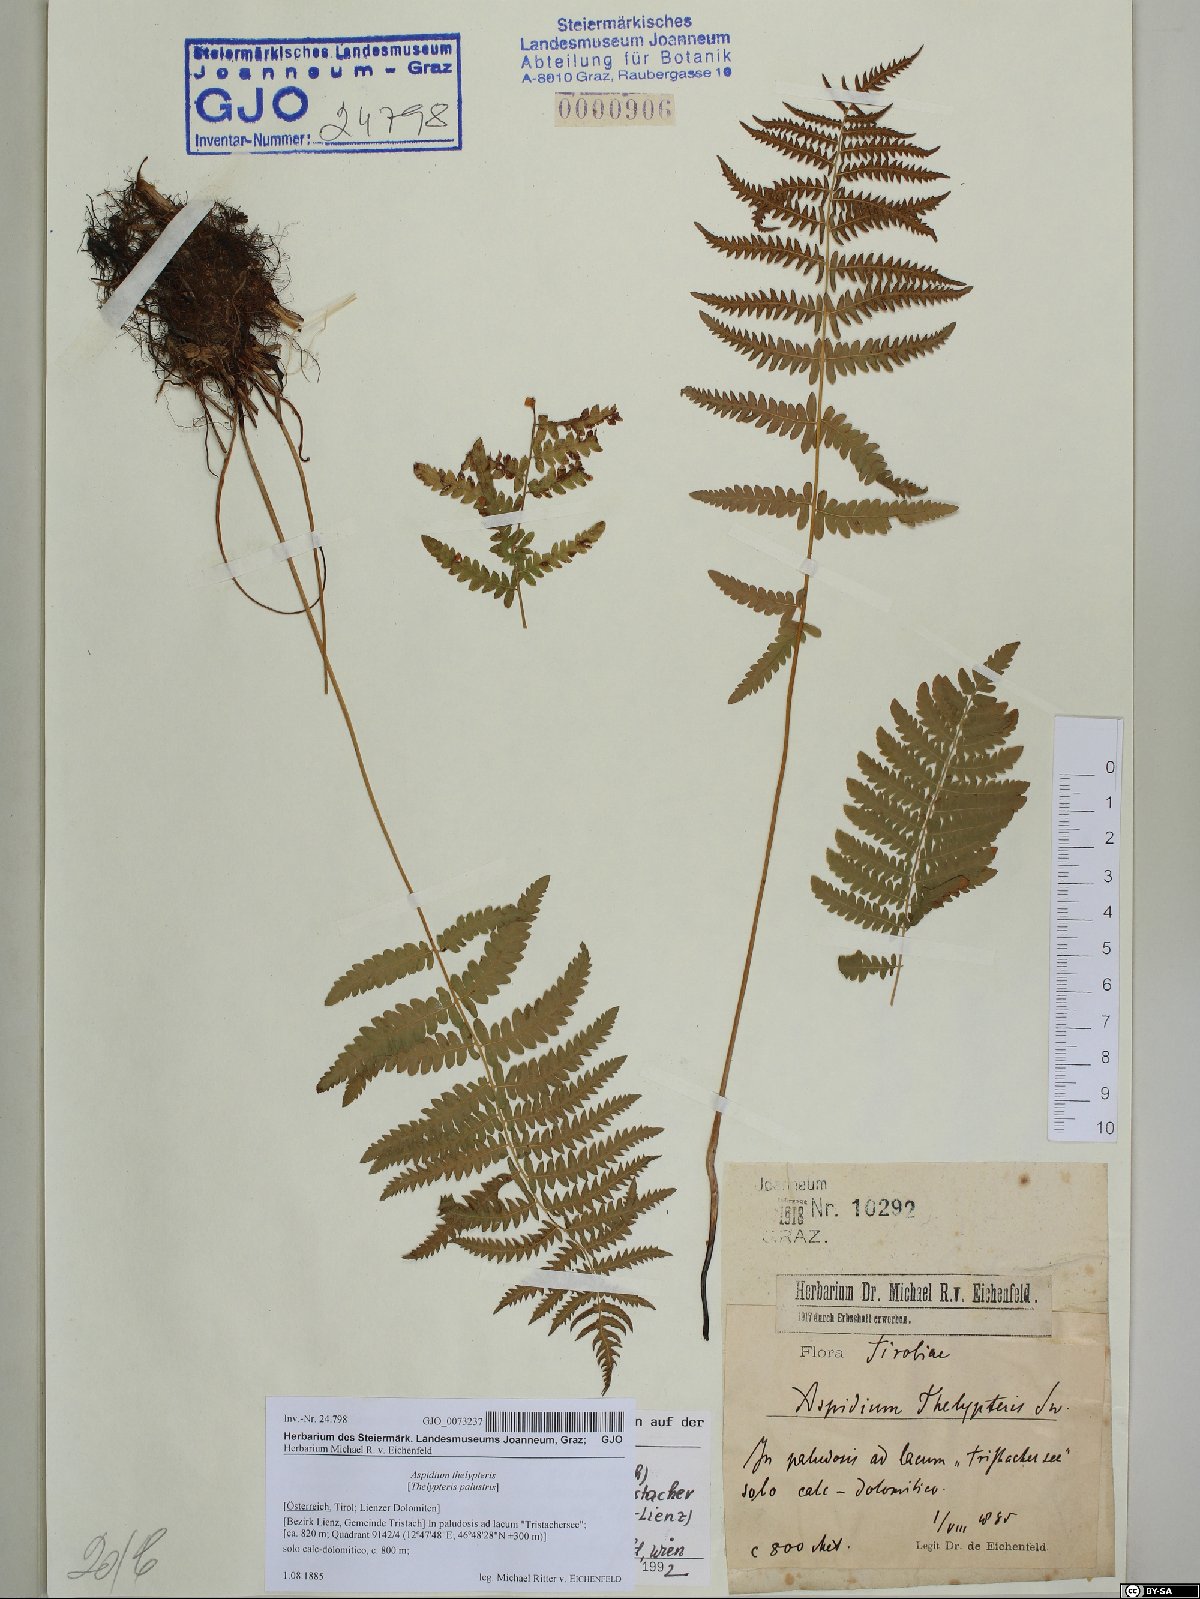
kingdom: Plantae
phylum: Tracheophyta
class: Polypodiopsida
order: Polypodiales
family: Thelypteridaceae
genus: Thelypteris
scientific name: Thelypteris palustris
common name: Marsh fern
